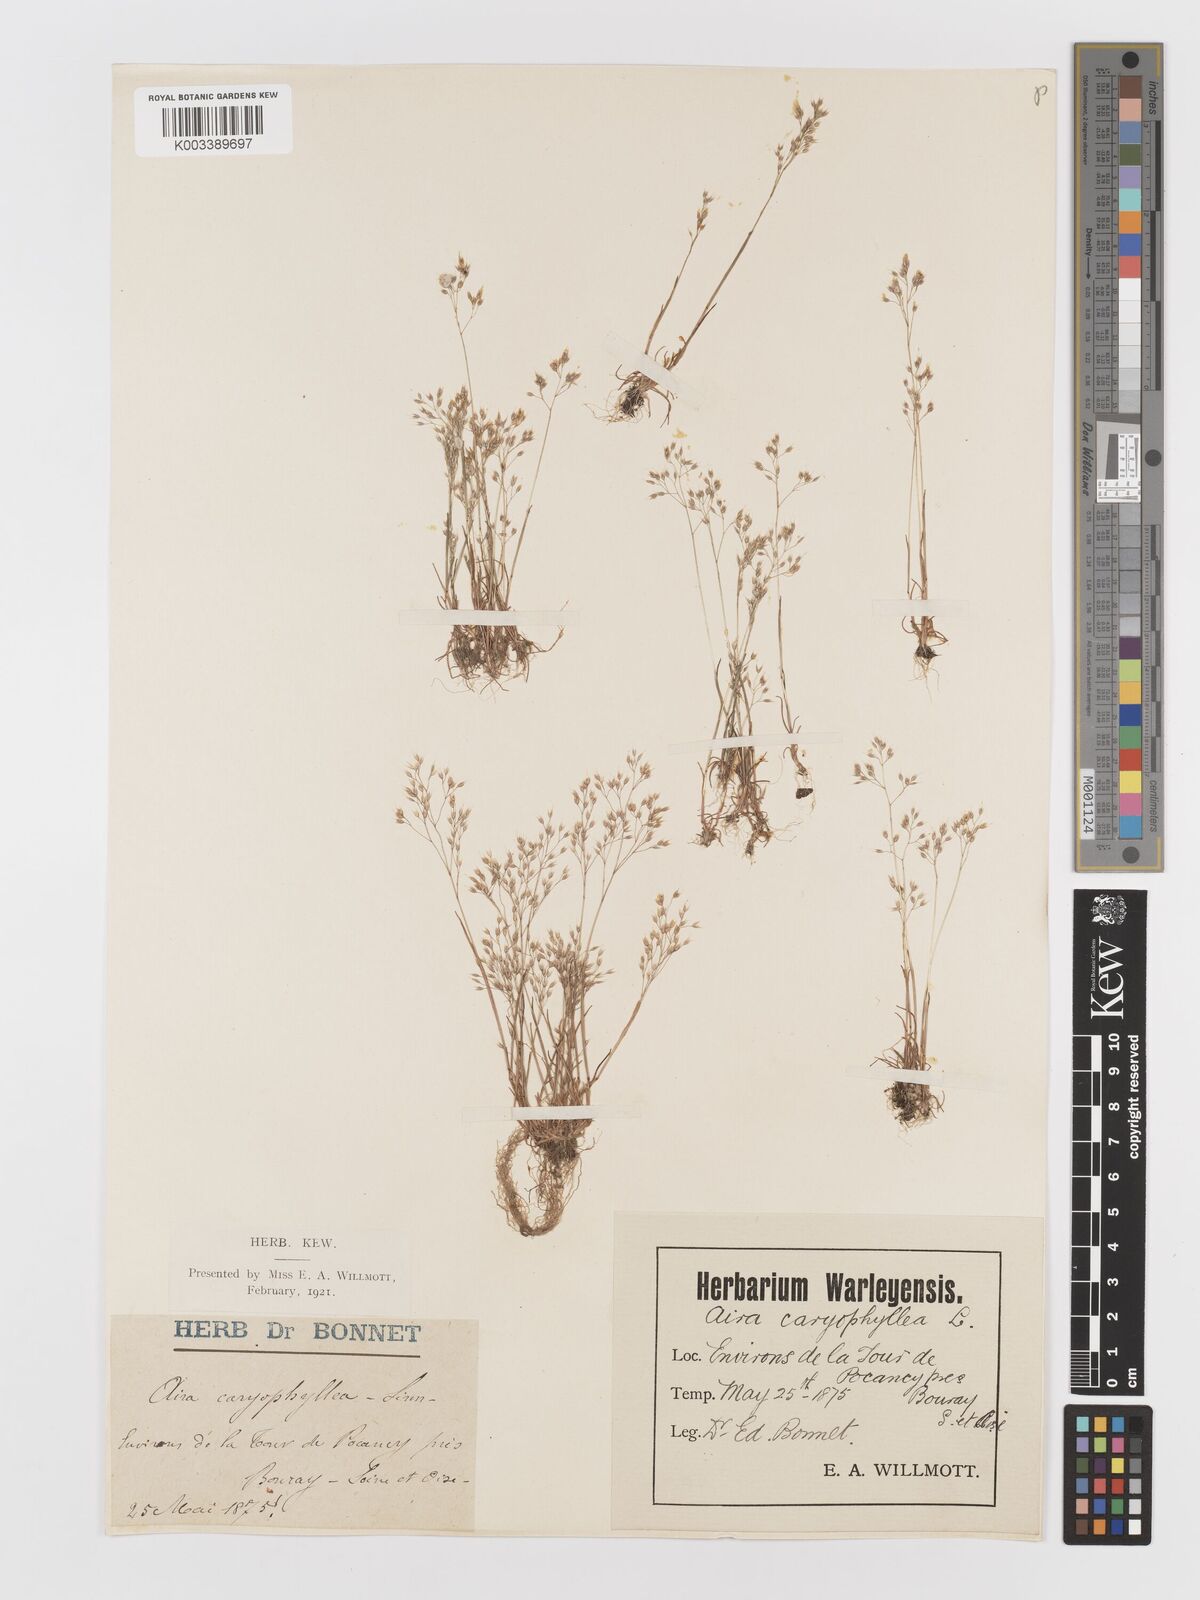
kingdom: Plantae
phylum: Tracheophyta
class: Liliopsida
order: Poales
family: Poaceae
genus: Aira
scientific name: Aira caryophyllea
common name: Silver hairgrass
